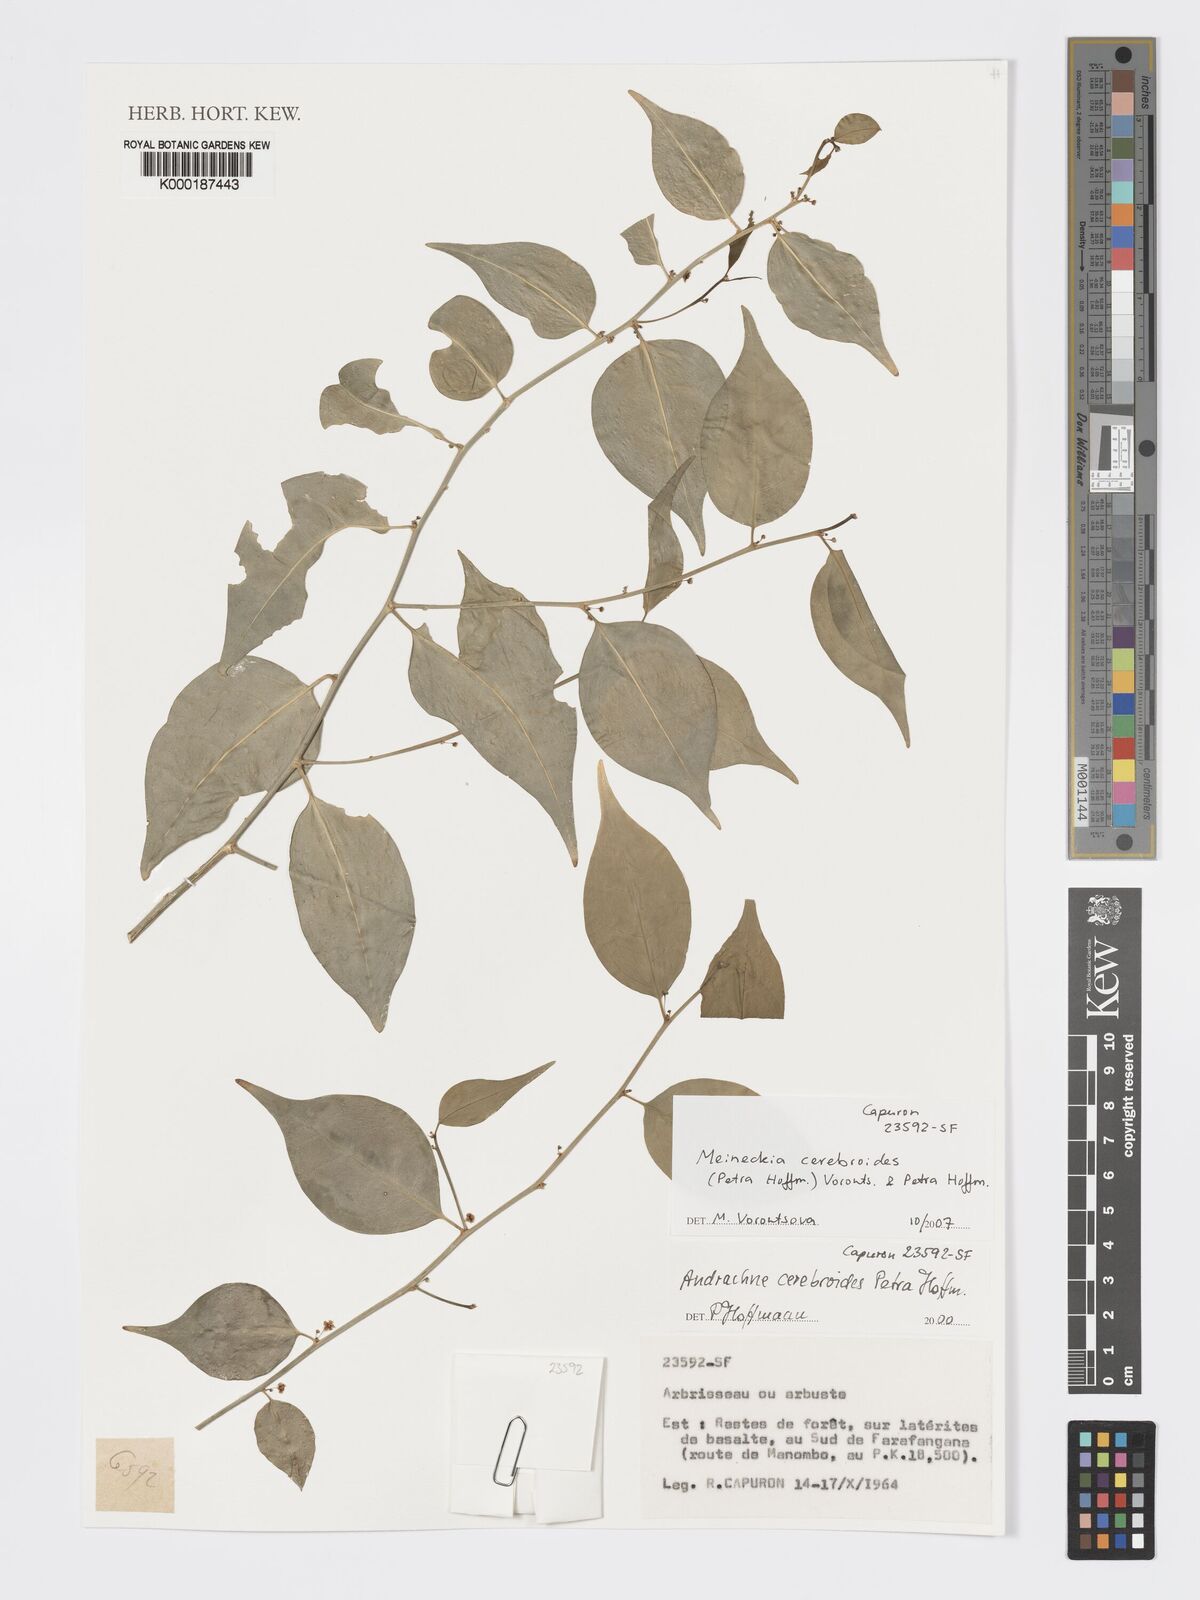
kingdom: Plantae
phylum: Tracheophyta
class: Magnoliopsida
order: Malpighiales
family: Phyllanthaceae
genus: Meineckia
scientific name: Meineckia cerebroides
